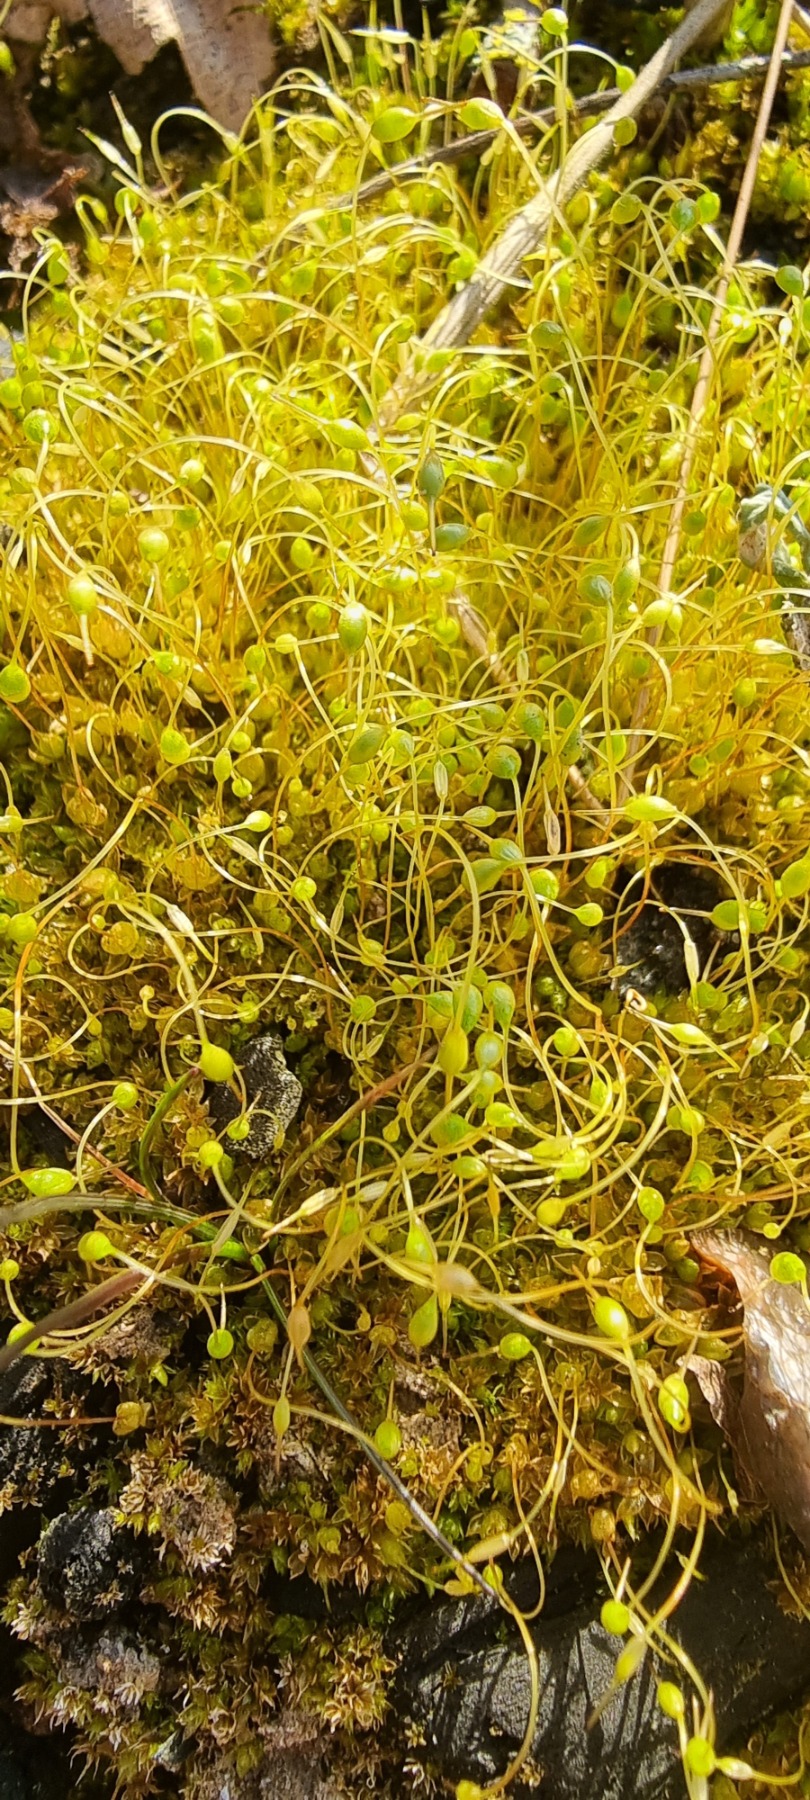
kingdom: Plantae
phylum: Bryophyta
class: Bryopsida
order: Funariales
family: Funariaceae
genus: Funaria
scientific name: Funaria hygrometrica
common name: Almindelig snobørste
